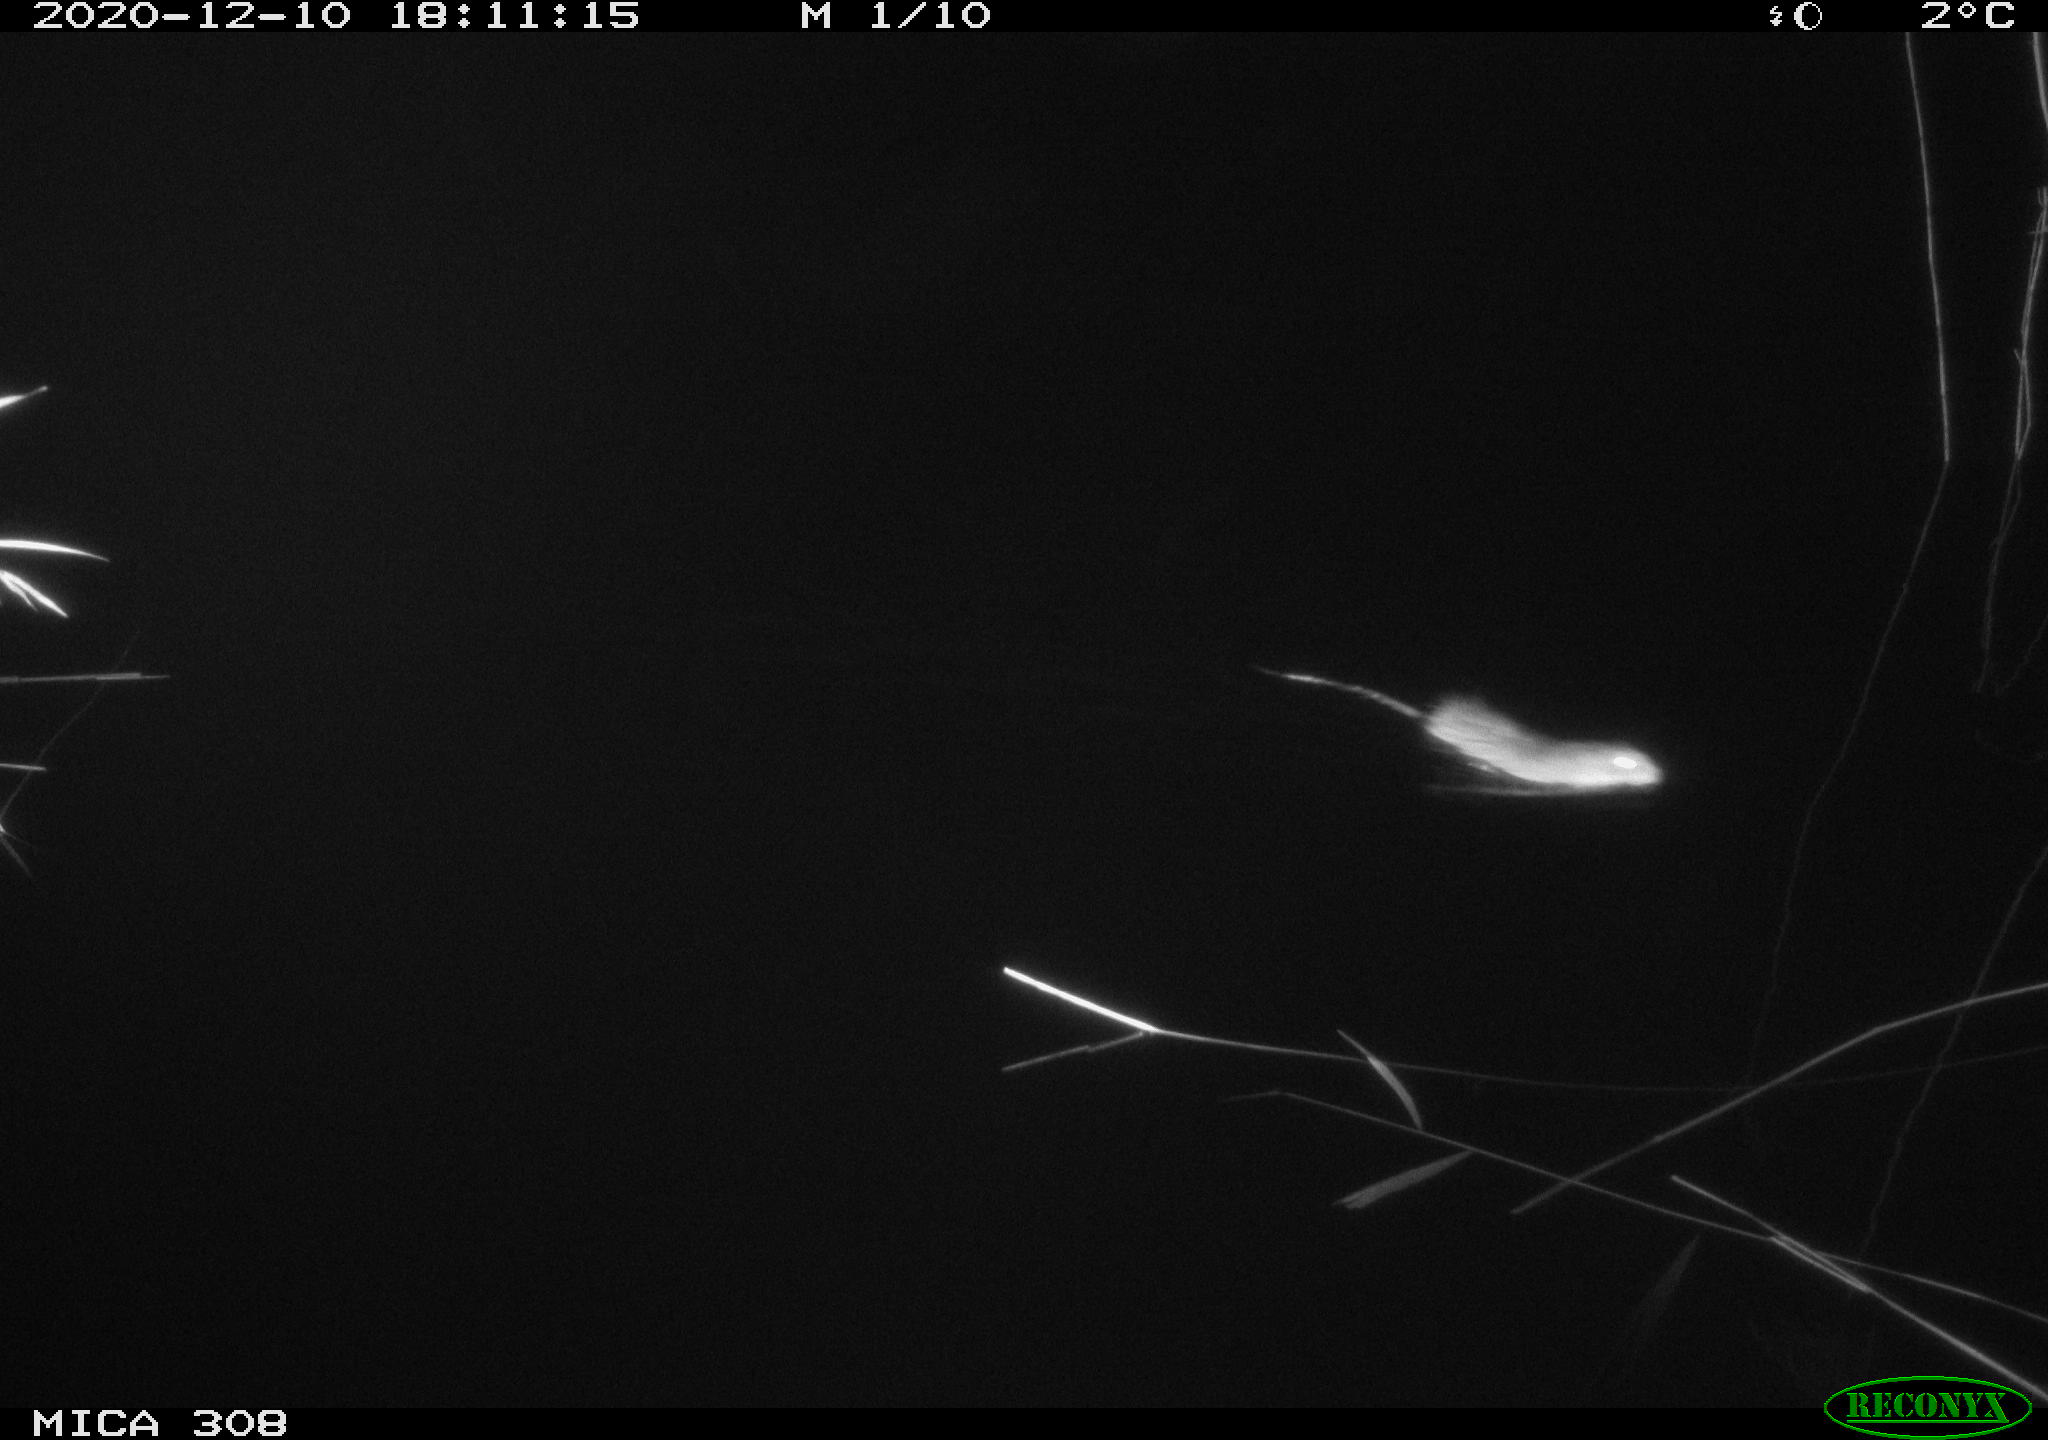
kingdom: Animalia
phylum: Chordata
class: Mammalia
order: Rodentia
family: Muridae
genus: Rattus
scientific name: Rattus norvegicus
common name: Brown rat
